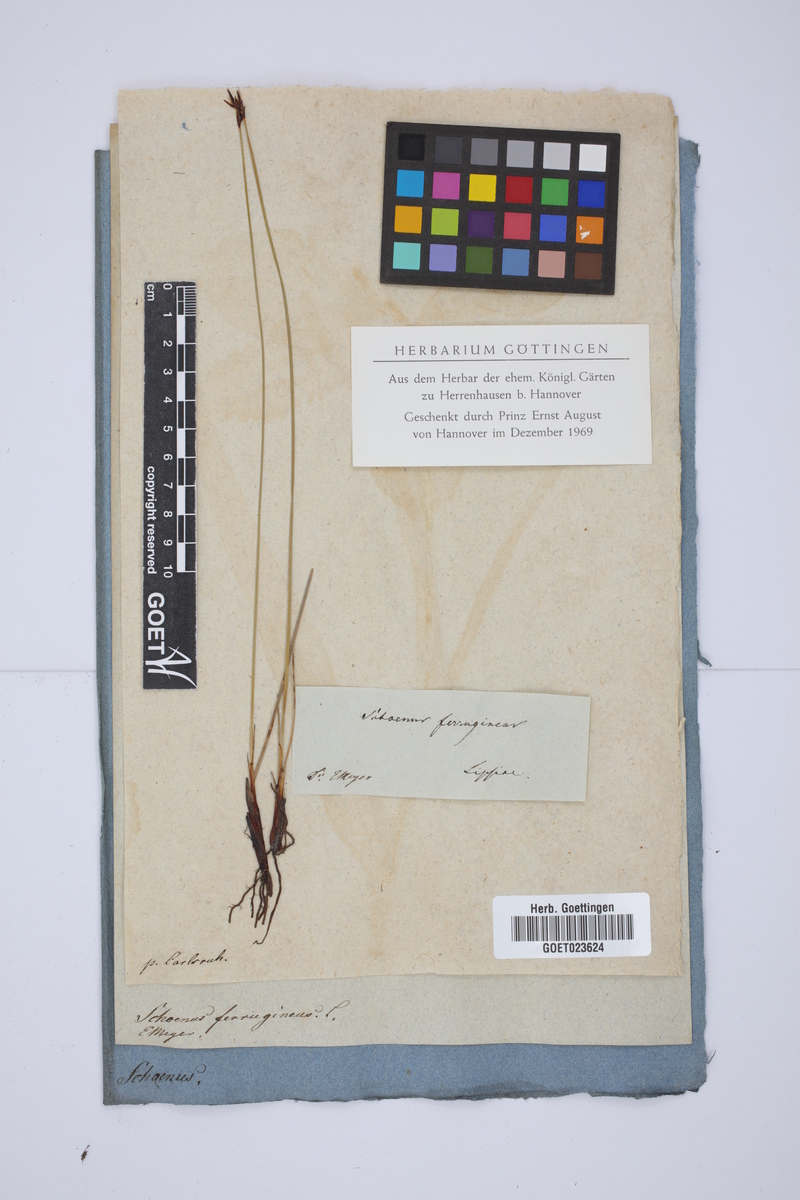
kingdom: Plantae
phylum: Tracheophyta
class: Liliopsida
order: Poales
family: Cyperaceae
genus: Schoenus
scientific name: Schoenus ferrugineus
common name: Brown bog-rush
